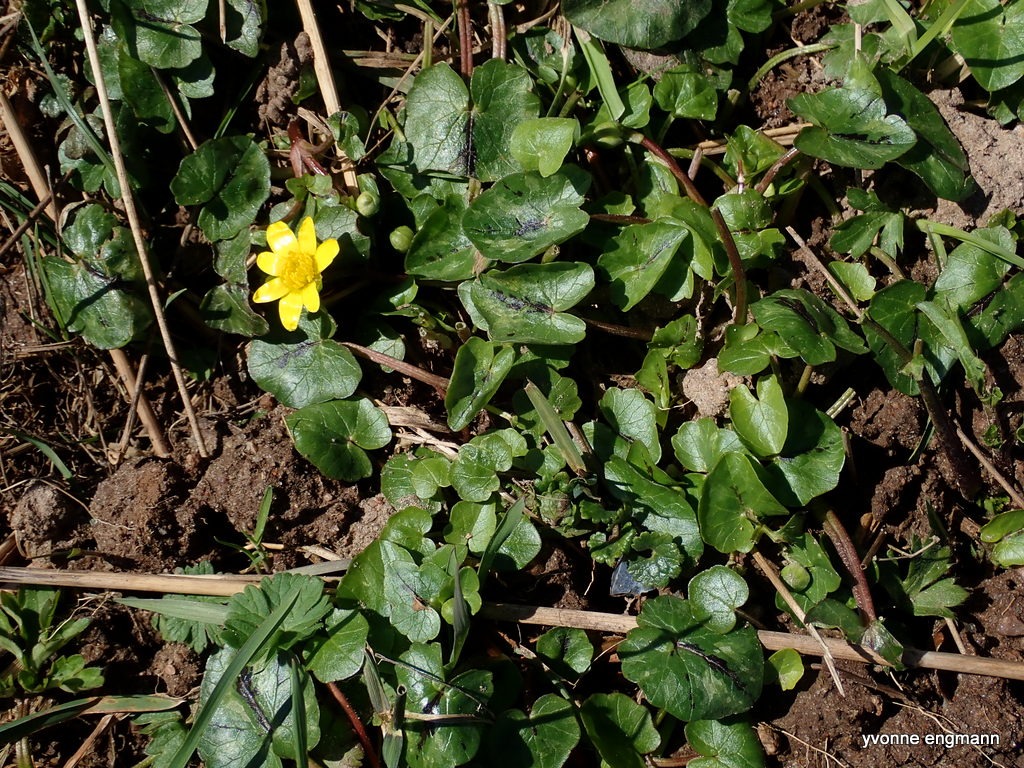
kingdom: Plantae
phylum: Tracheophyta
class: Magnoliopsida
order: Ranunculales
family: Ranunculaceae
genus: Ficaria
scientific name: Ficaria verna
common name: Vorterod
